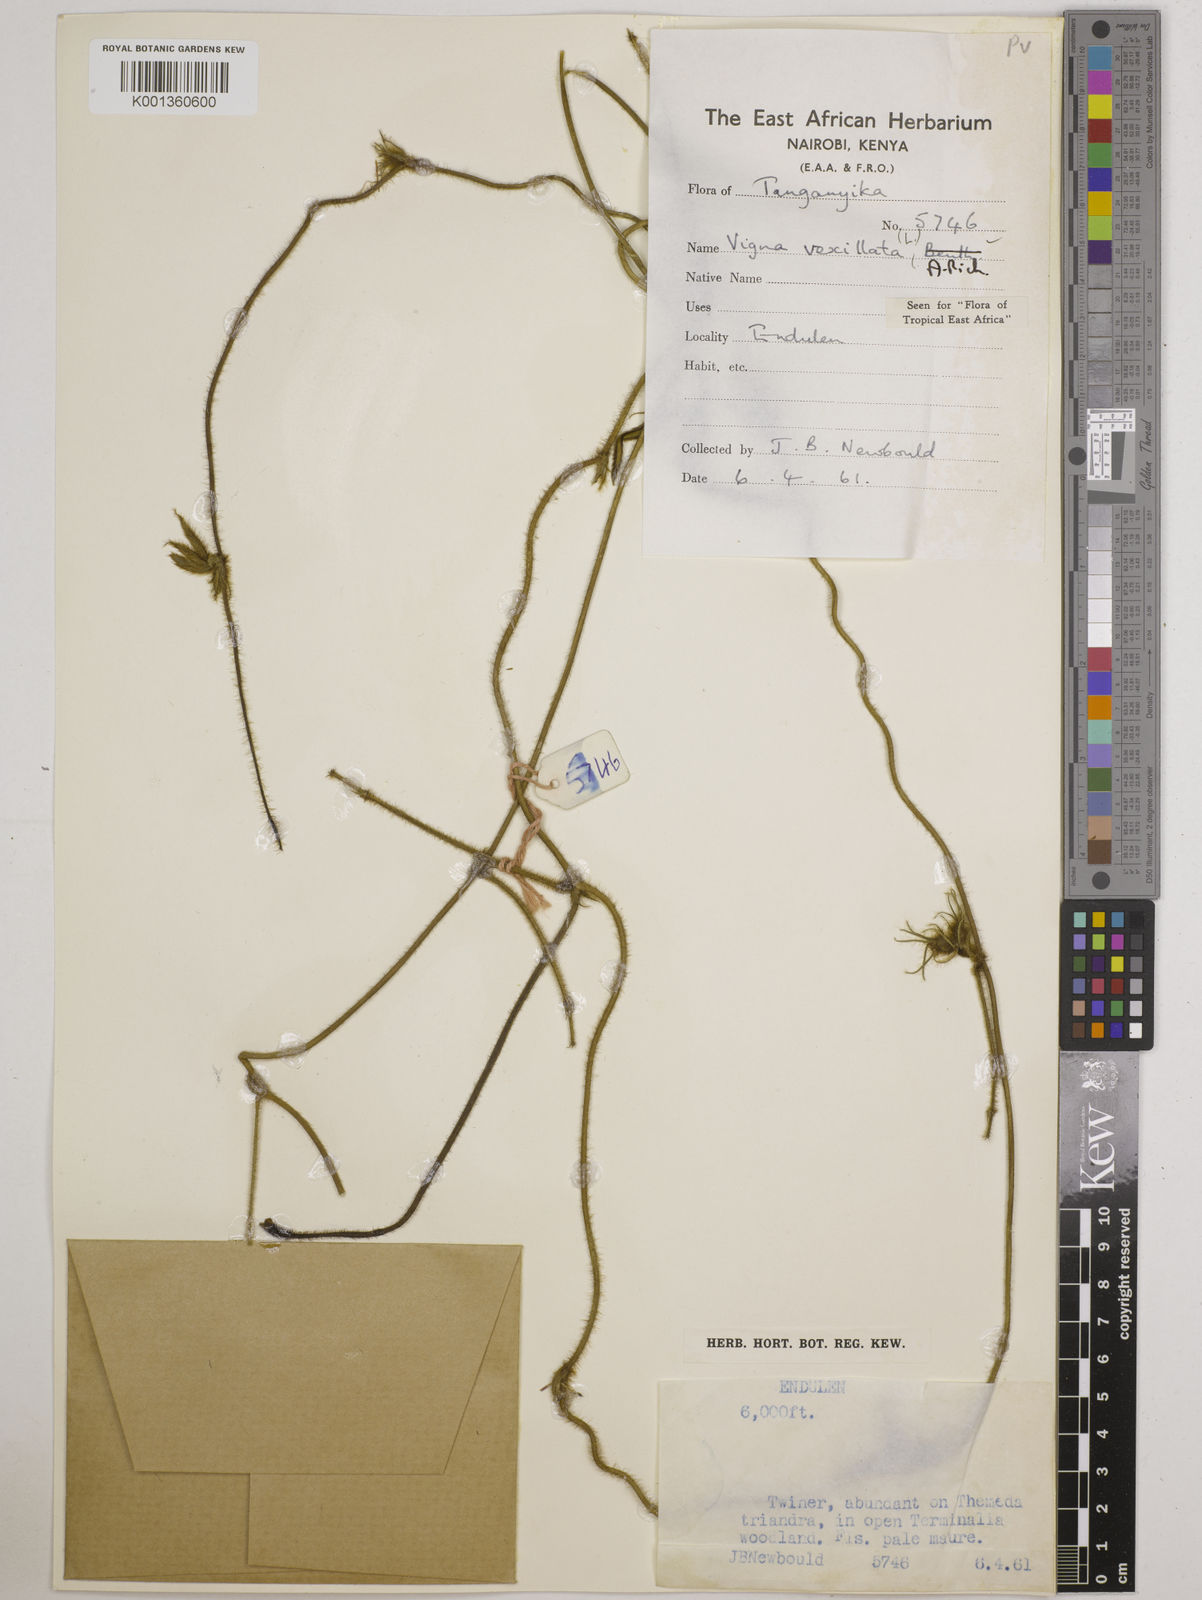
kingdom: Plantae
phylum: Tracheophyta
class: Magnoliopsida
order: Fabales
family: Fabaceae
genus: Vigna
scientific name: Vigna vexillata
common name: Zombi pea
